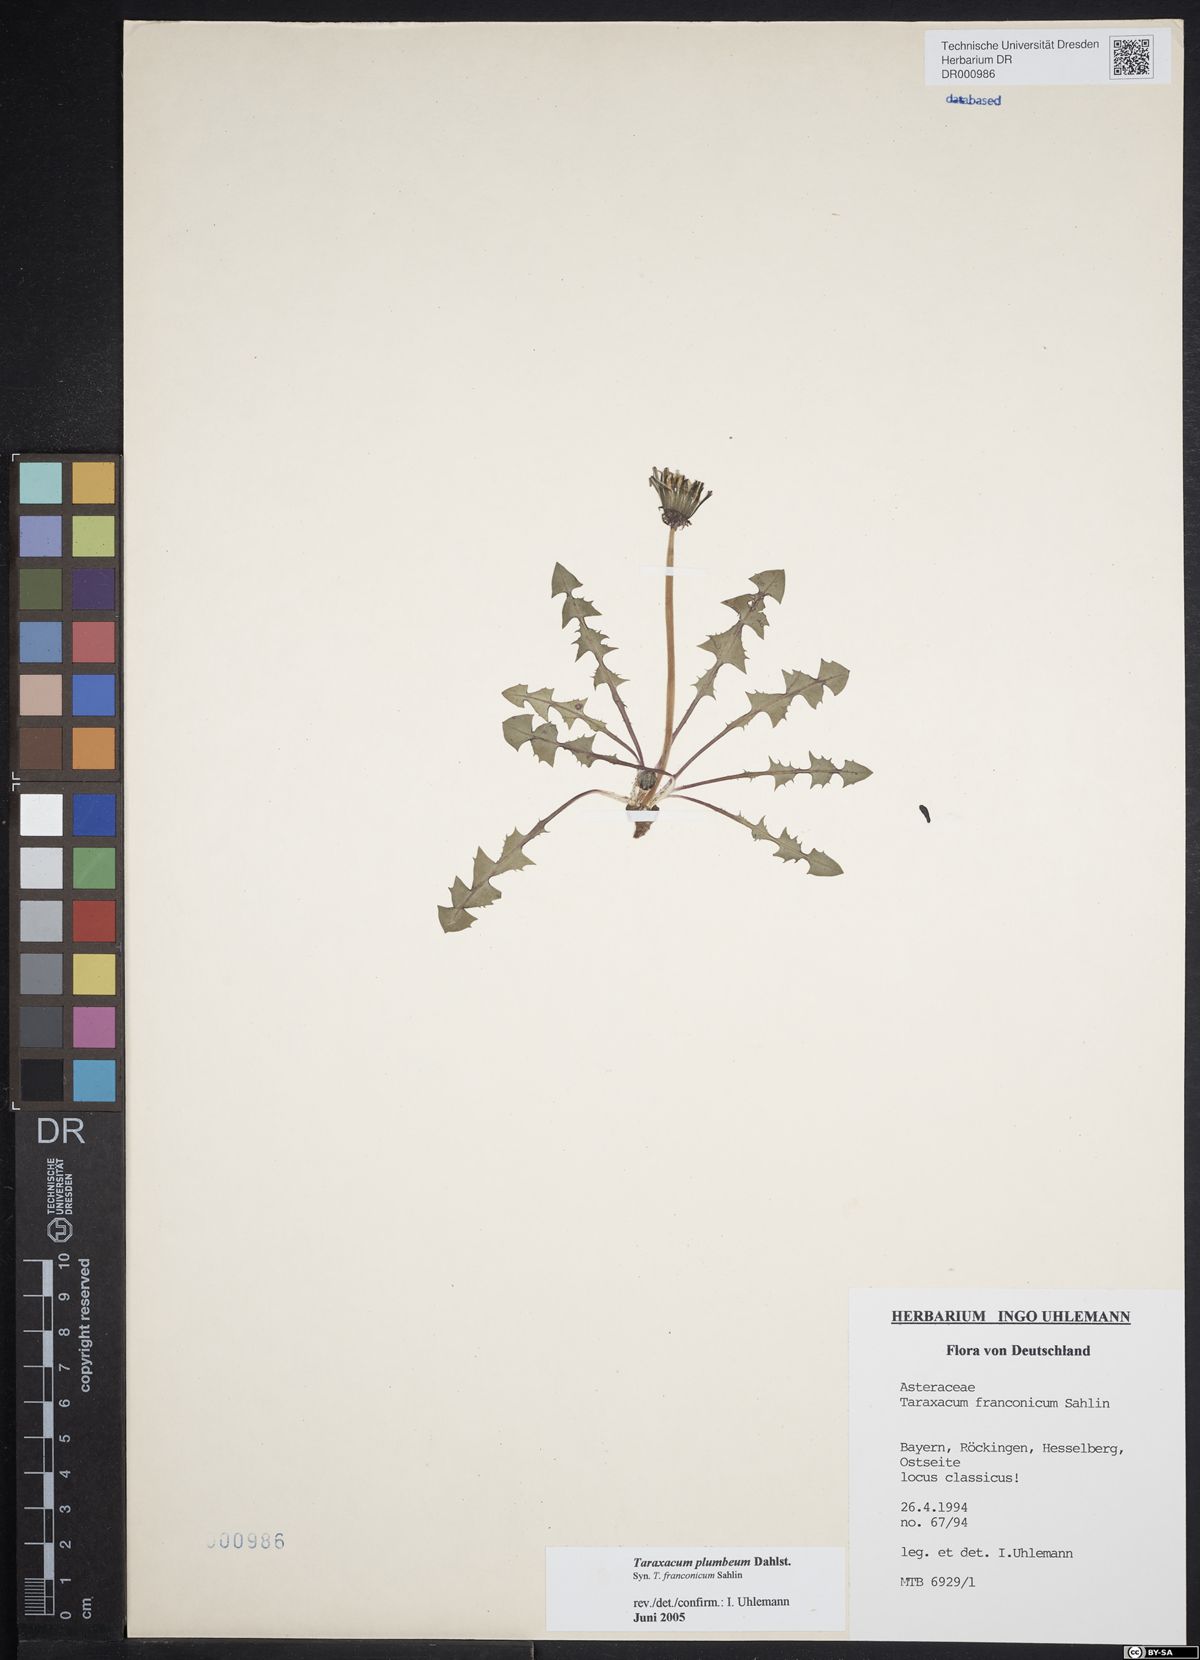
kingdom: Plantae
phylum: Tracheophyta
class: Magnoliopsida
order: Asterales
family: Asteraceae
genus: Taraxacum
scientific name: Taraxacum plumbeum
